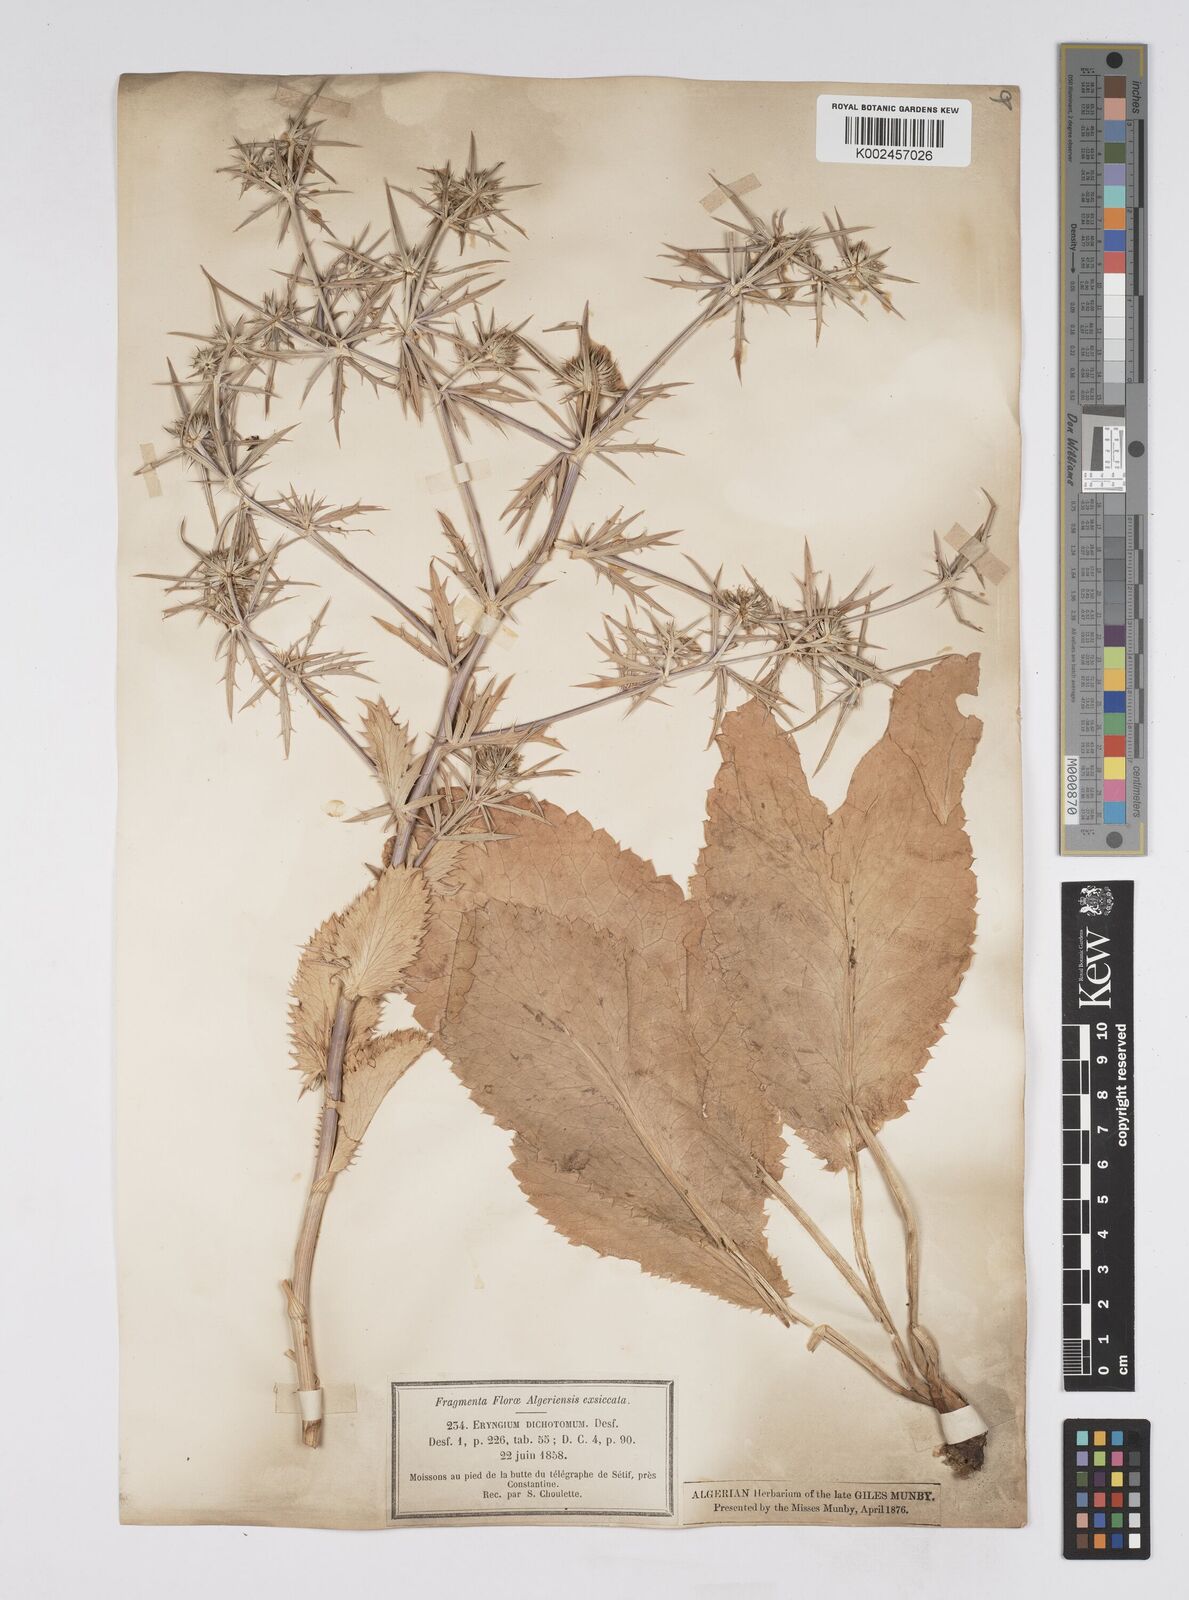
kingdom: Plantae
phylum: Tracheophyta
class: Magnoliopsida
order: Apiales
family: Apiaceae
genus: Eryngium
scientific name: Eryngium dichotomum
